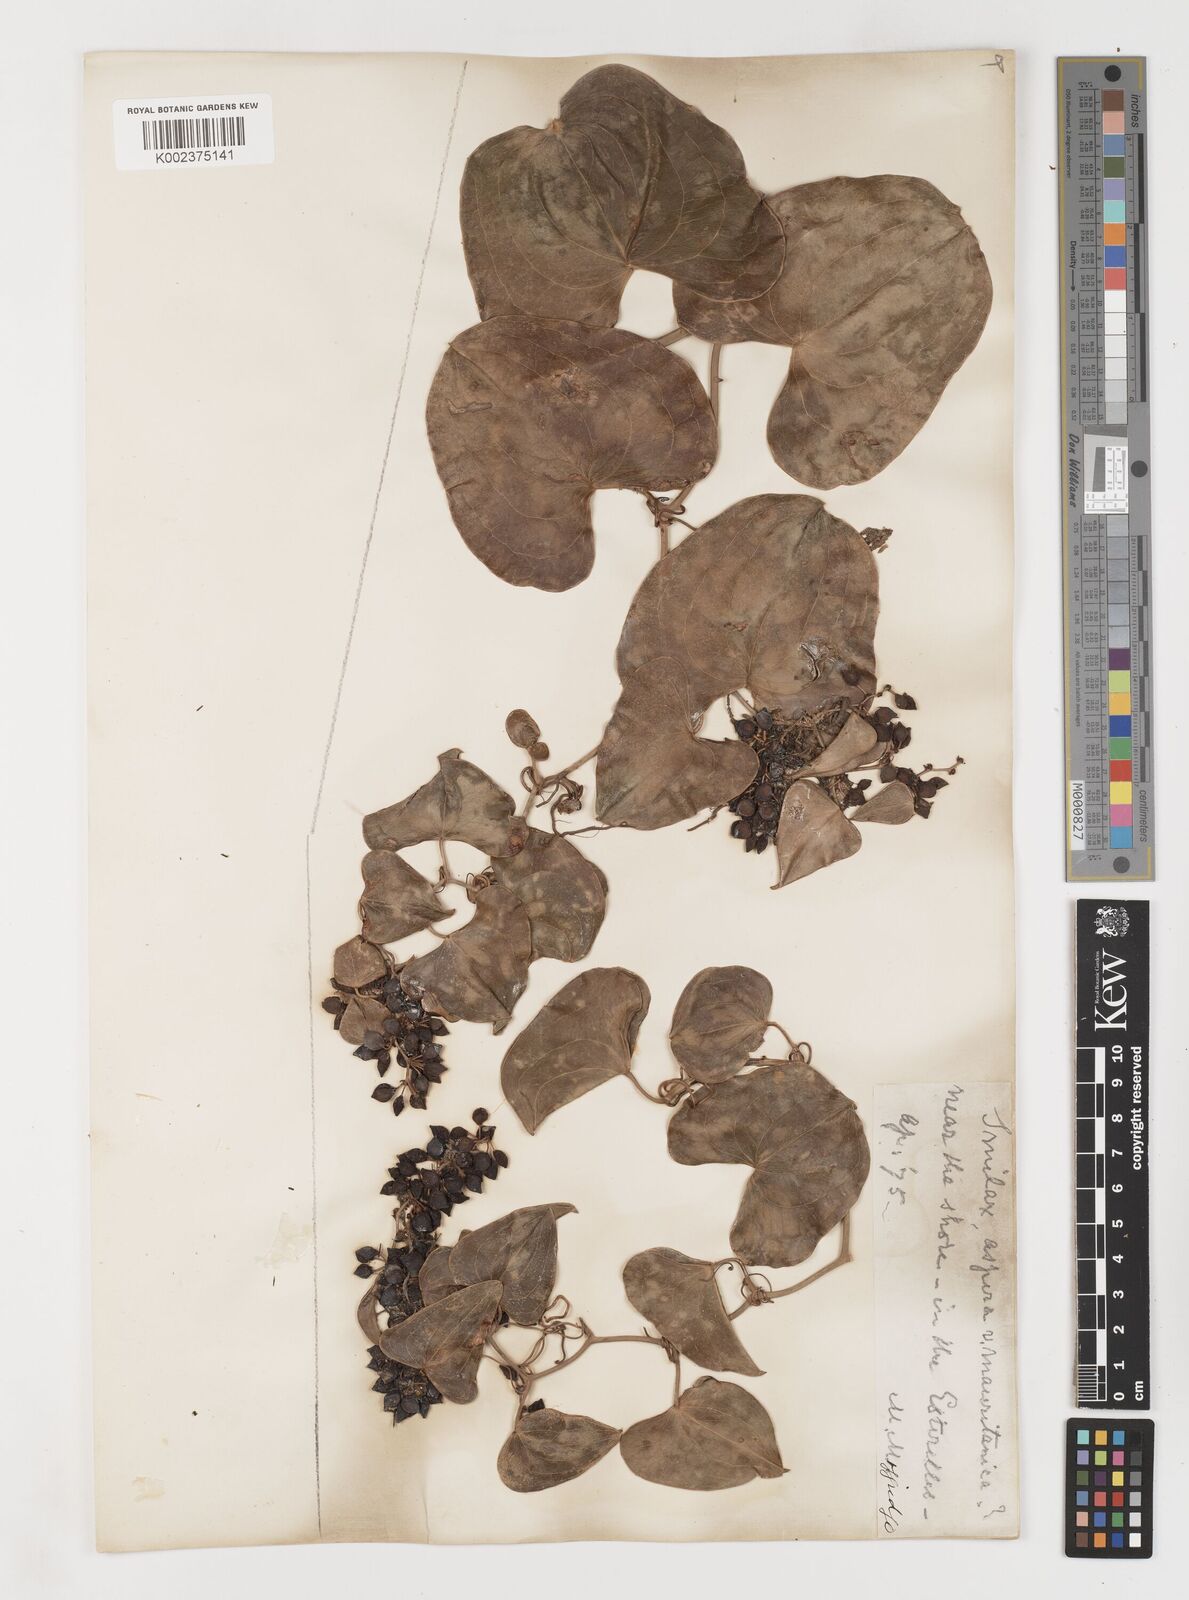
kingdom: Plantae
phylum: Tracheophyta
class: Liliopsida
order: Liliales
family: Smilacaceae
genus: Smilax
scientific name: Smilax aspera
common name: Common smilax
